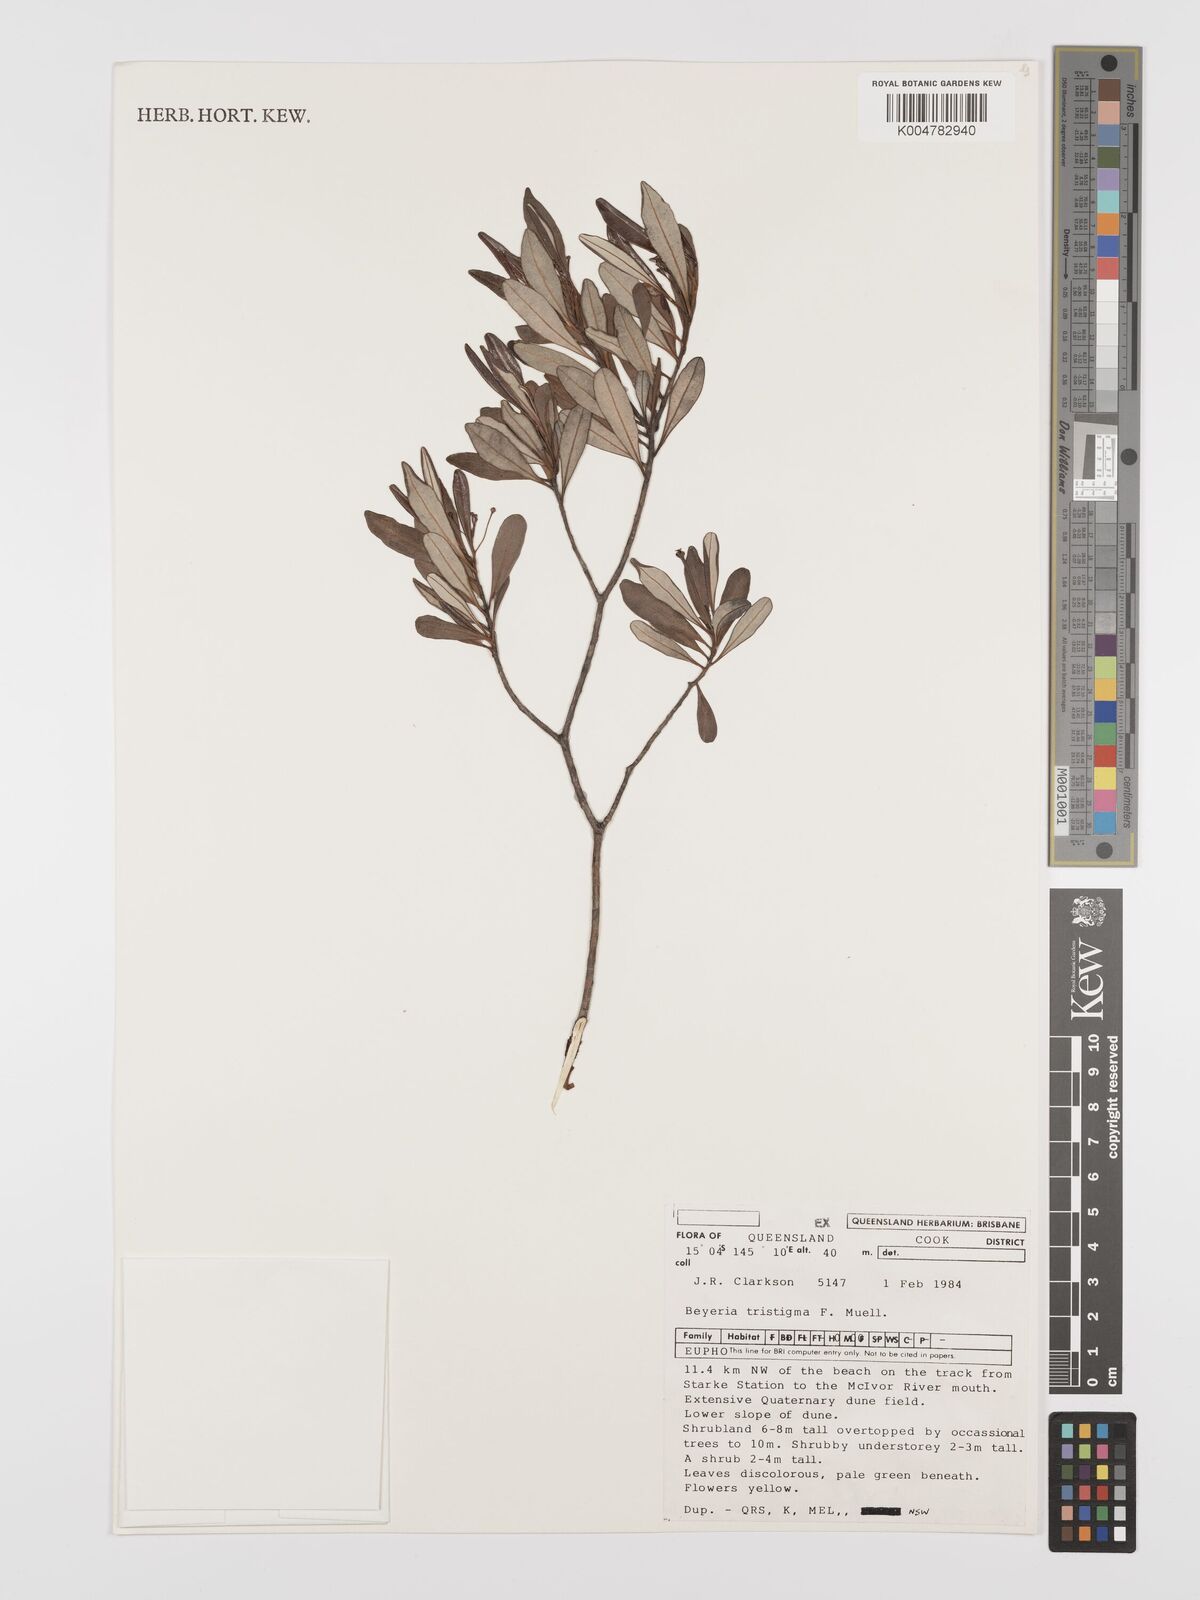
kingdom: Plantae
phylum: Tracheophyta
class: Magnoliopsida
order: Malpighiales
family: Euphorbiaceae
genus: Shonia
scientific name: Shonia tristigma
